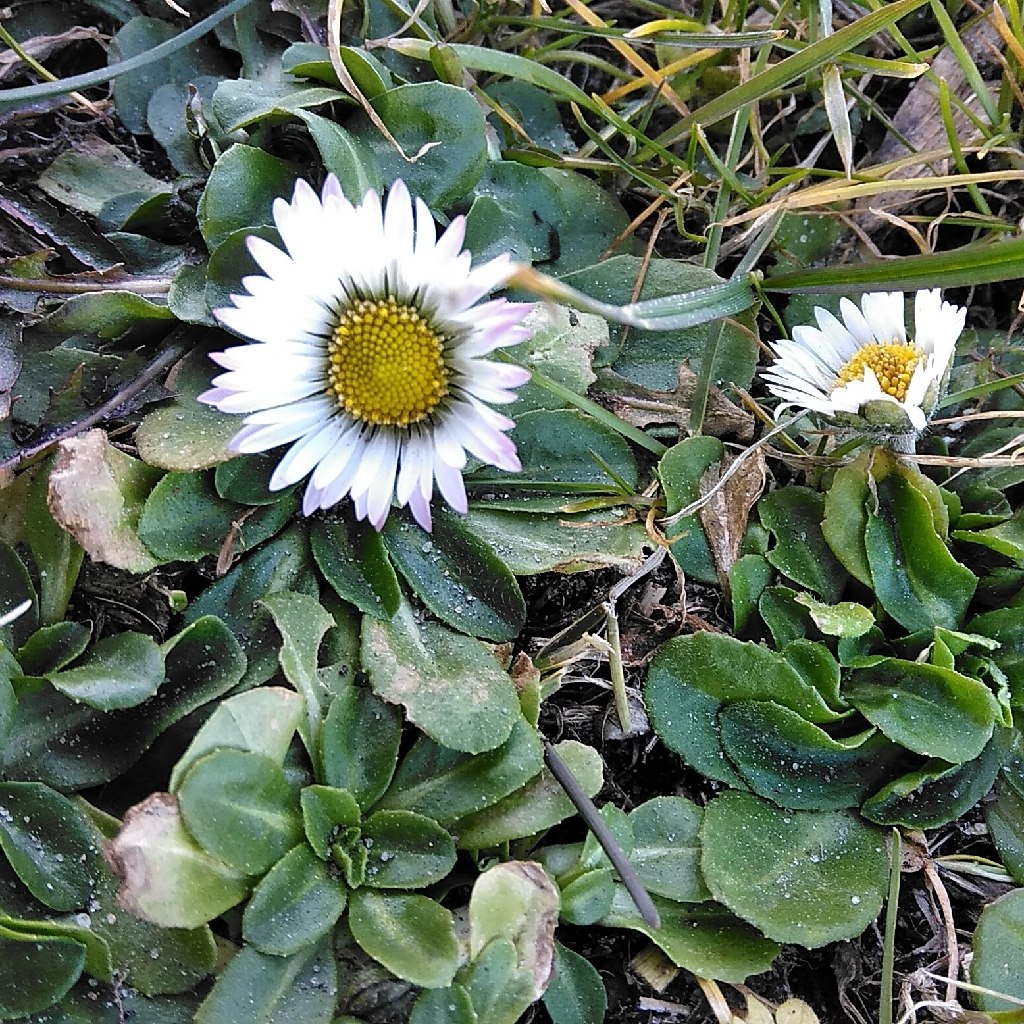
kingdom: Plantae
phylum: Tracheophyta
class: Magnoliopsida
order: Asterales
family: Asteraceae
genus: Bellis
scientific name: Bellis perennis
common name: Tusindfryd
